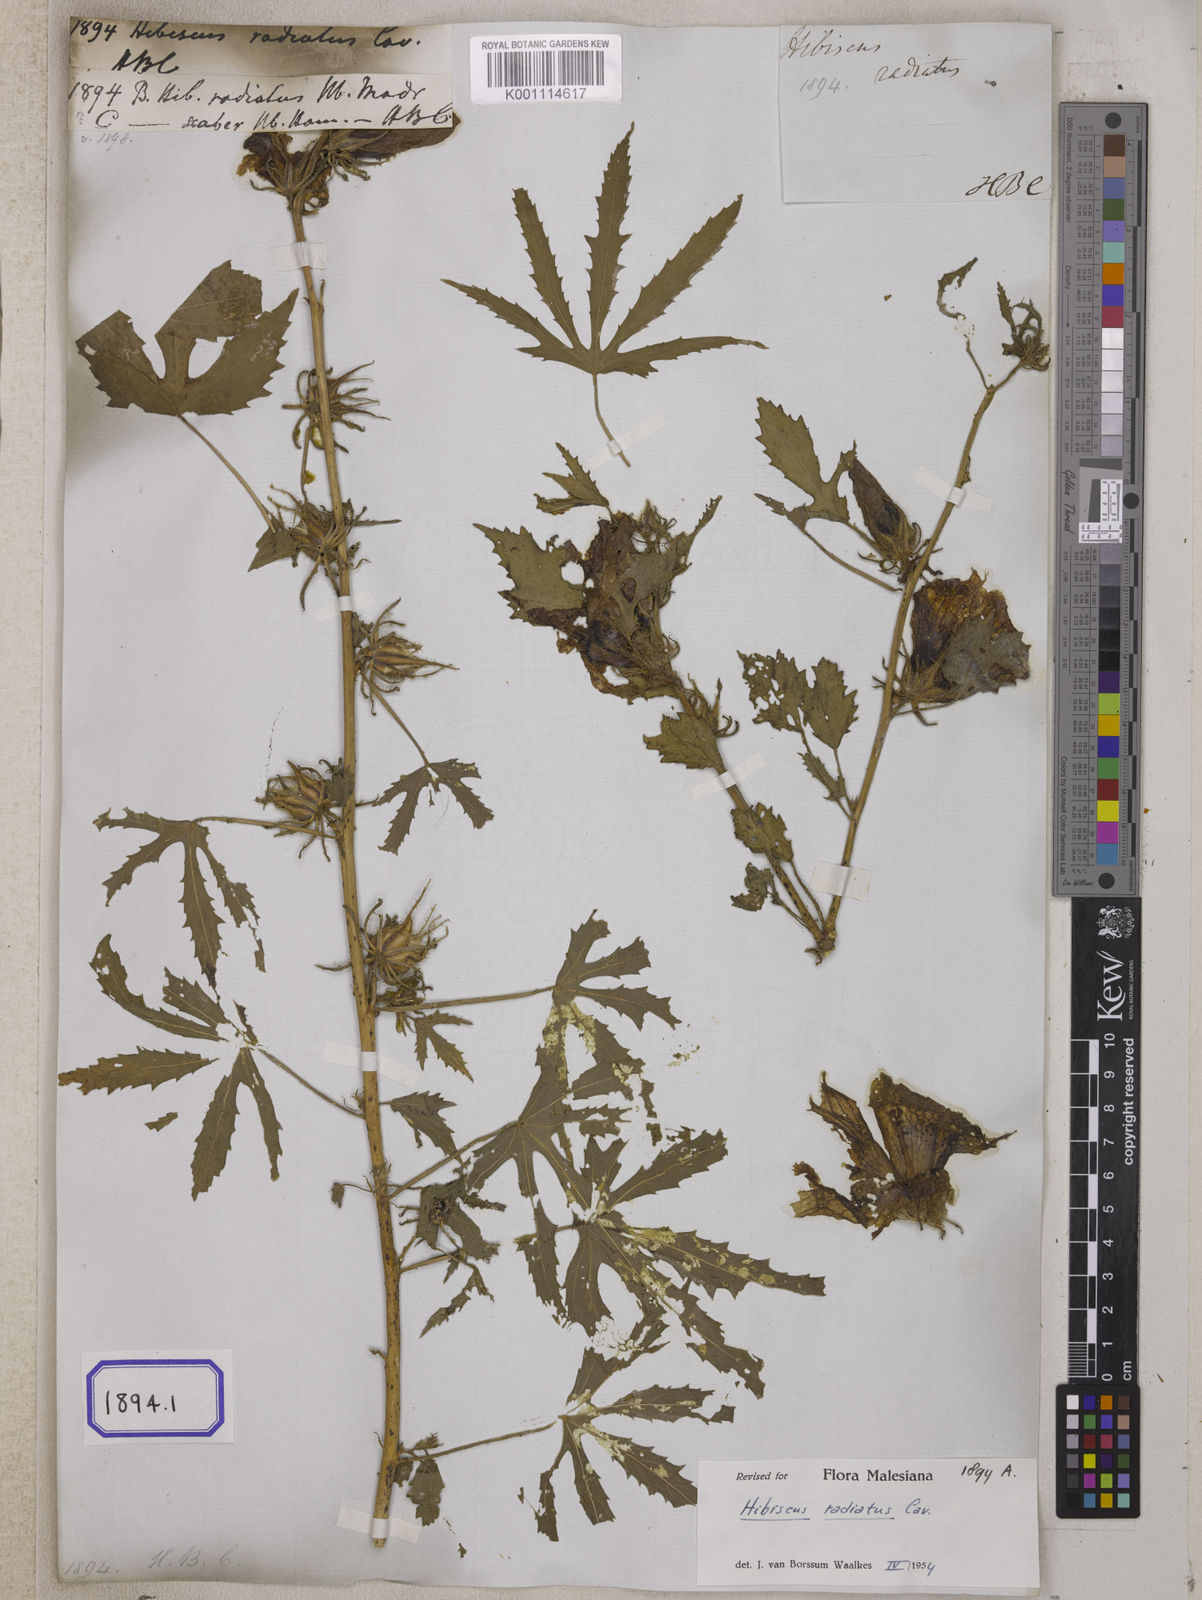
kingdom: Plantae
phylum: Tracheophyta
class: Magnoliopsida
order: Malvales
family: Malvaceae
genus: Hibiscus
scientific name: Hibiscus radiatus
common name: Monarch rosemallow
